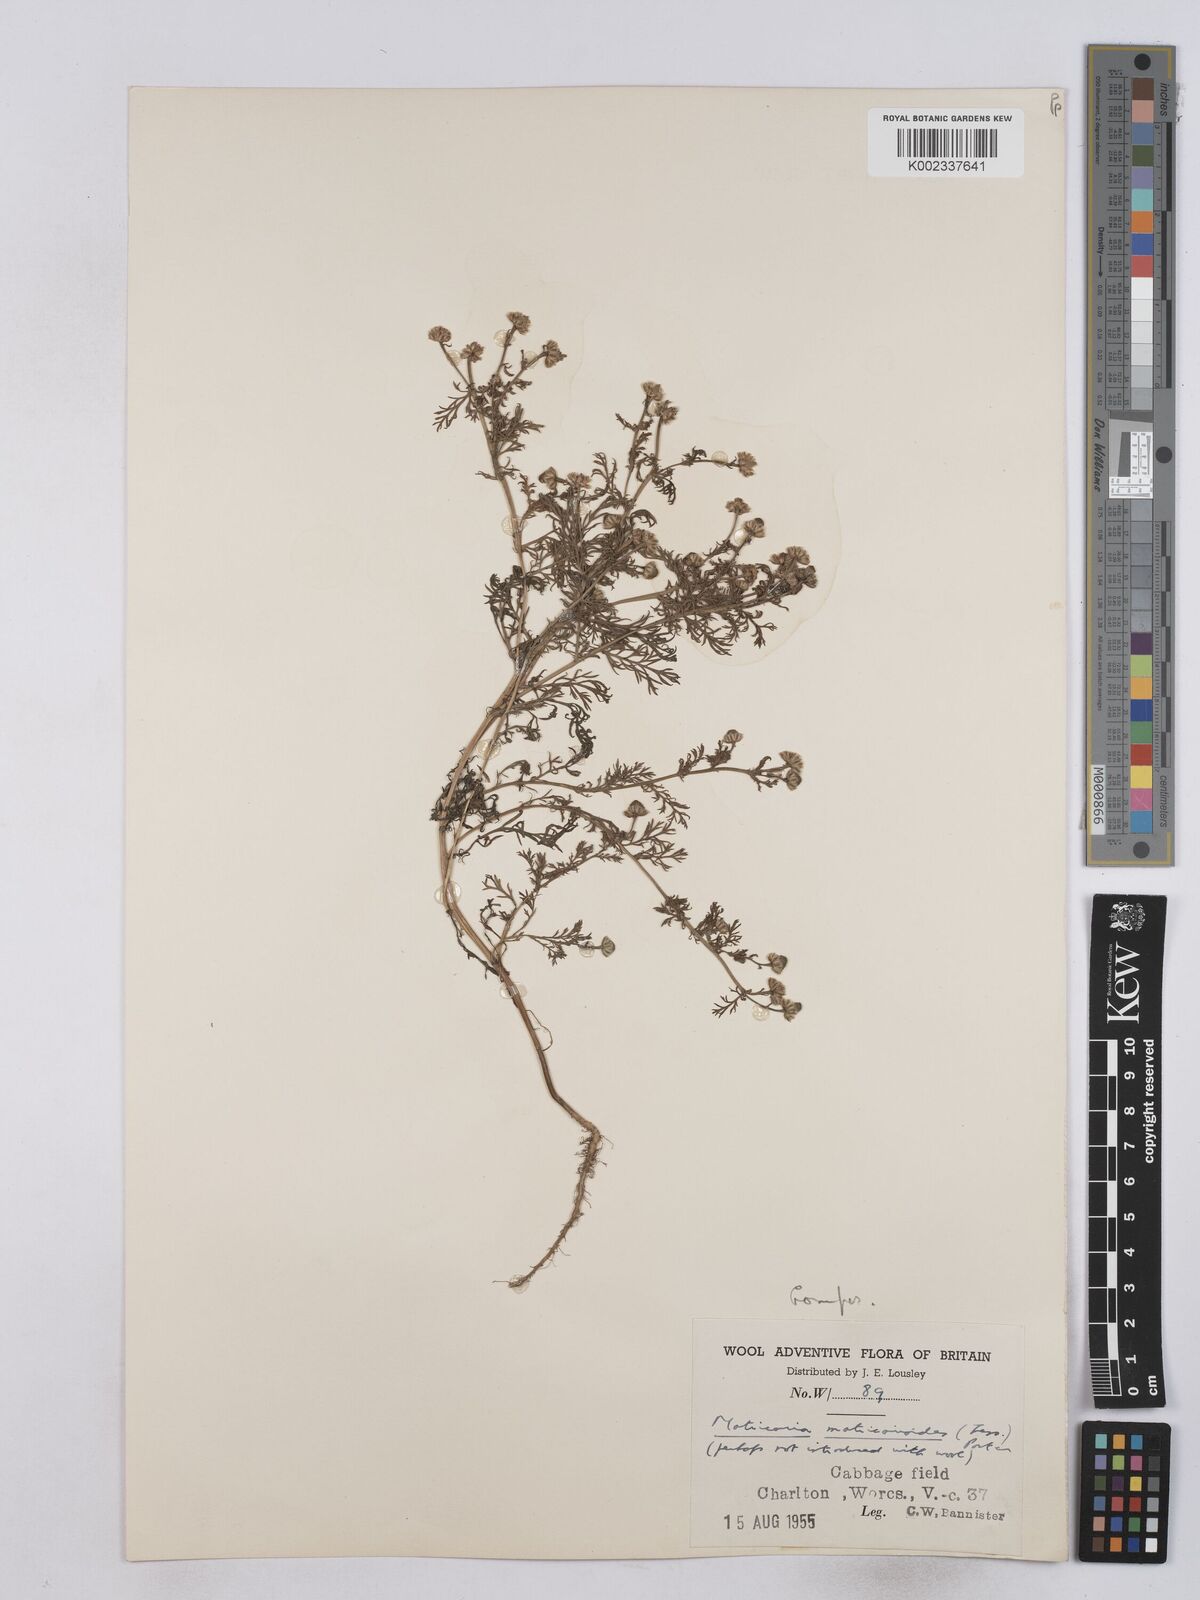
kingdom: Plantae
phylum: Tracheophyta
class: Magnoliopsida
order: Asterales
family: Asteraceae
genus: Matricaria
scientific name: Matricaria discoidea
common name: Disc mayweed
